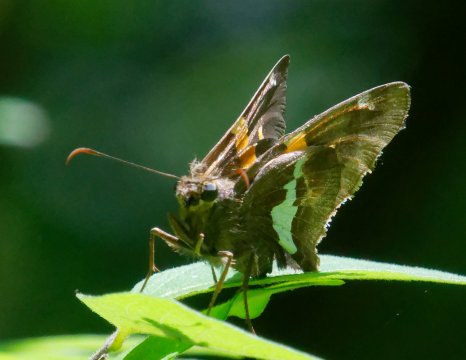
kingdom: Animalia
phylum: Arthropoda
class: Insecta
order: Lepidoptera
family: Hesperiidae
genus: Epargyreus
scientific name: Epargyreus clarus
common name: Silver-spotted Skipper
